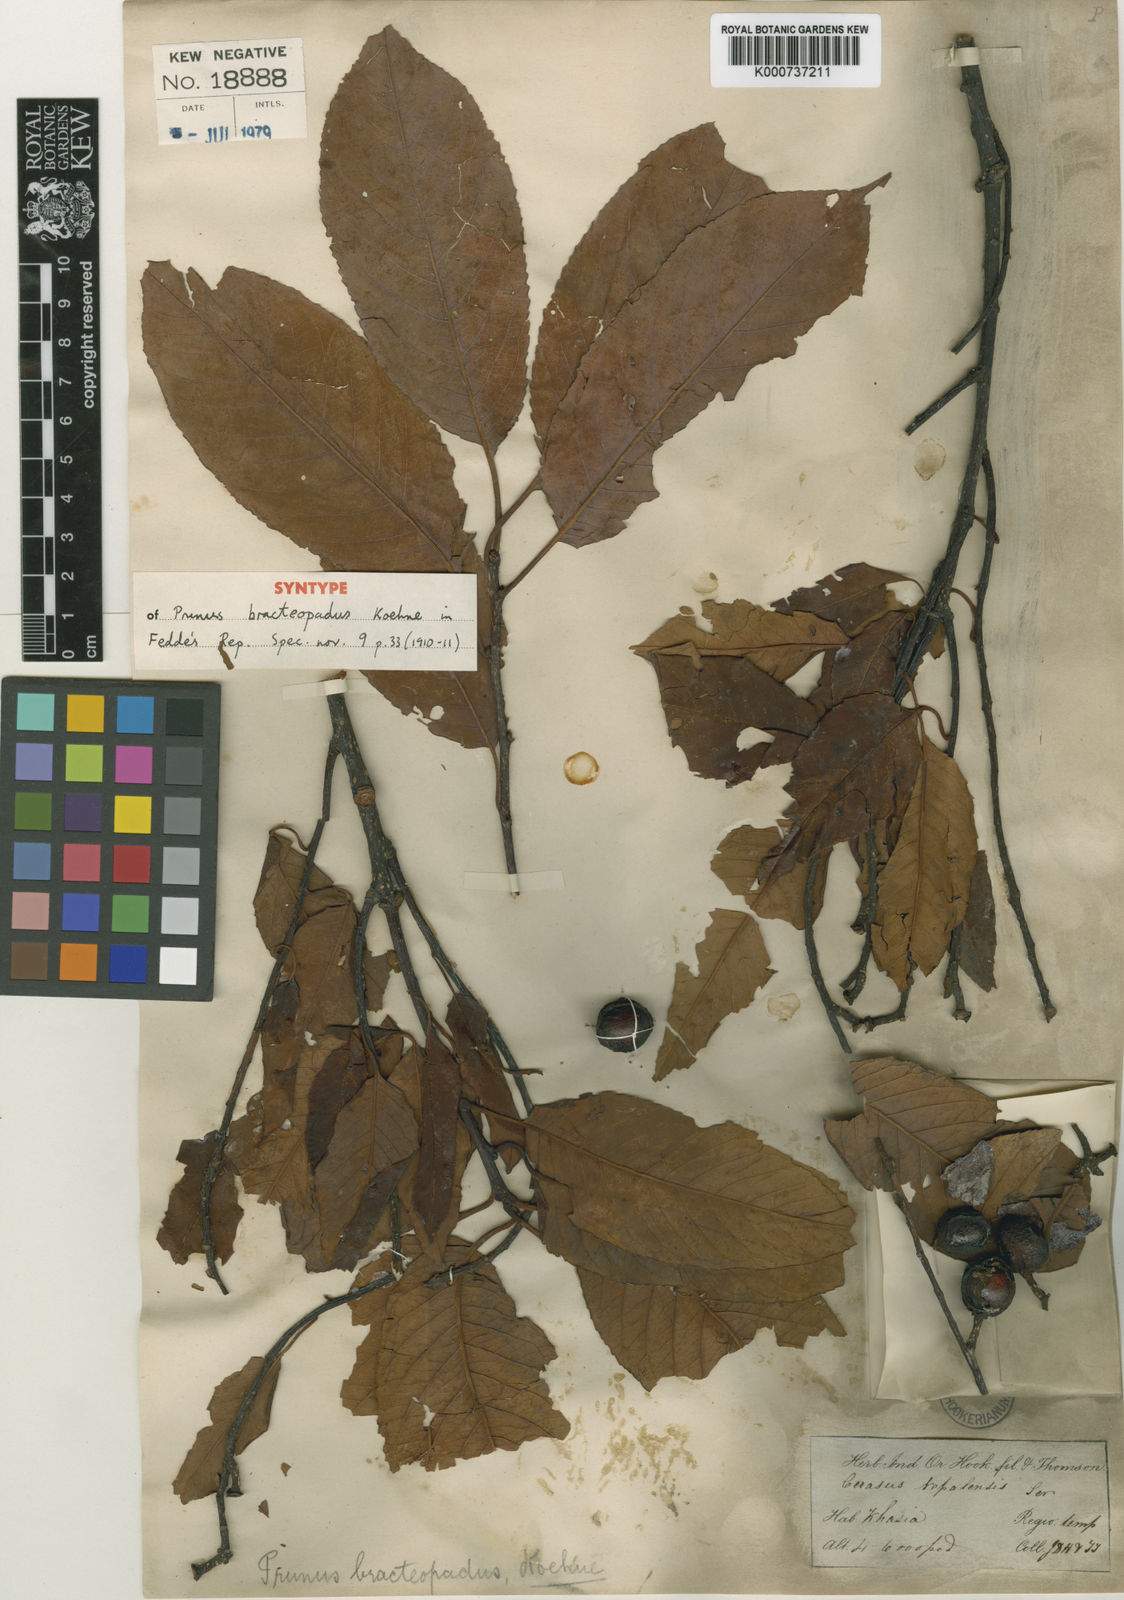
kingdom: Plantae
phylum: Tracheophyta
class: Magnoliopsida
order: Rosales
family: Rosaceae
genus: Prunus
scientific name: Prunus bracteopadus
